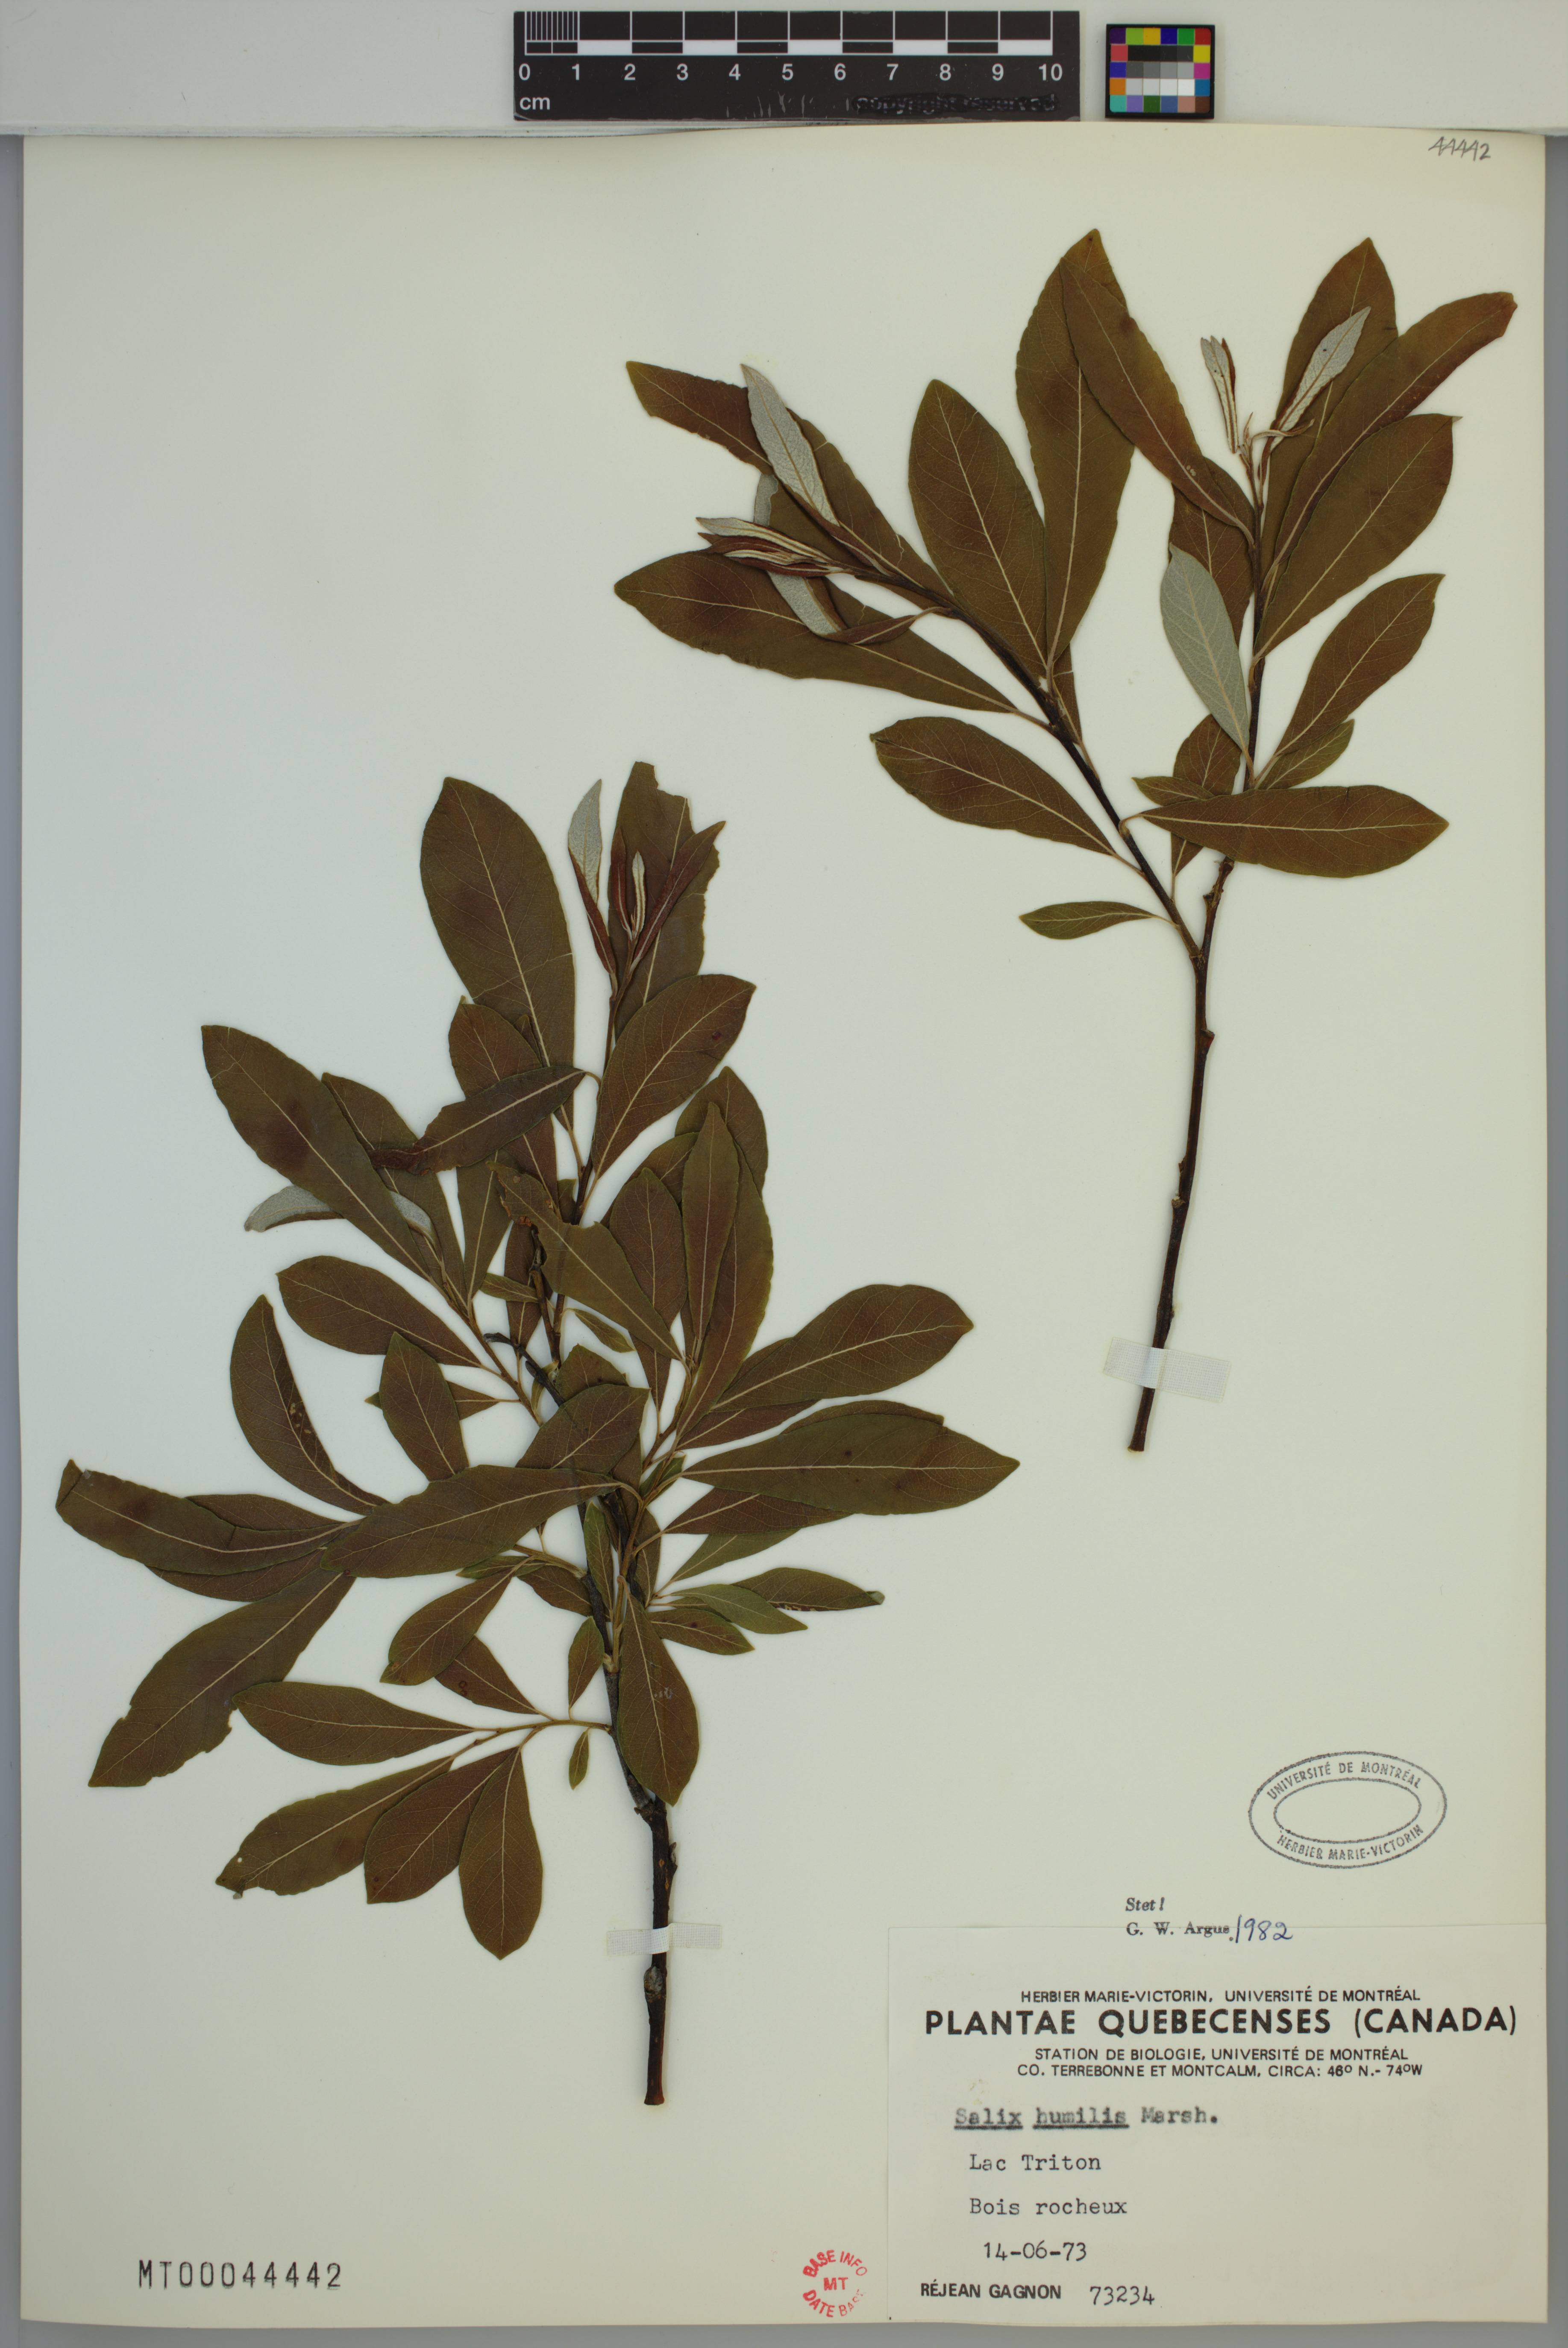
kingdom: Plantae
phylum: Tracheophyta
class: Magnoliopsida
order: Malpighiales
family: Salicaceae
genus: Salix
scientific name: Salix humilis
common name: Prairie willow
